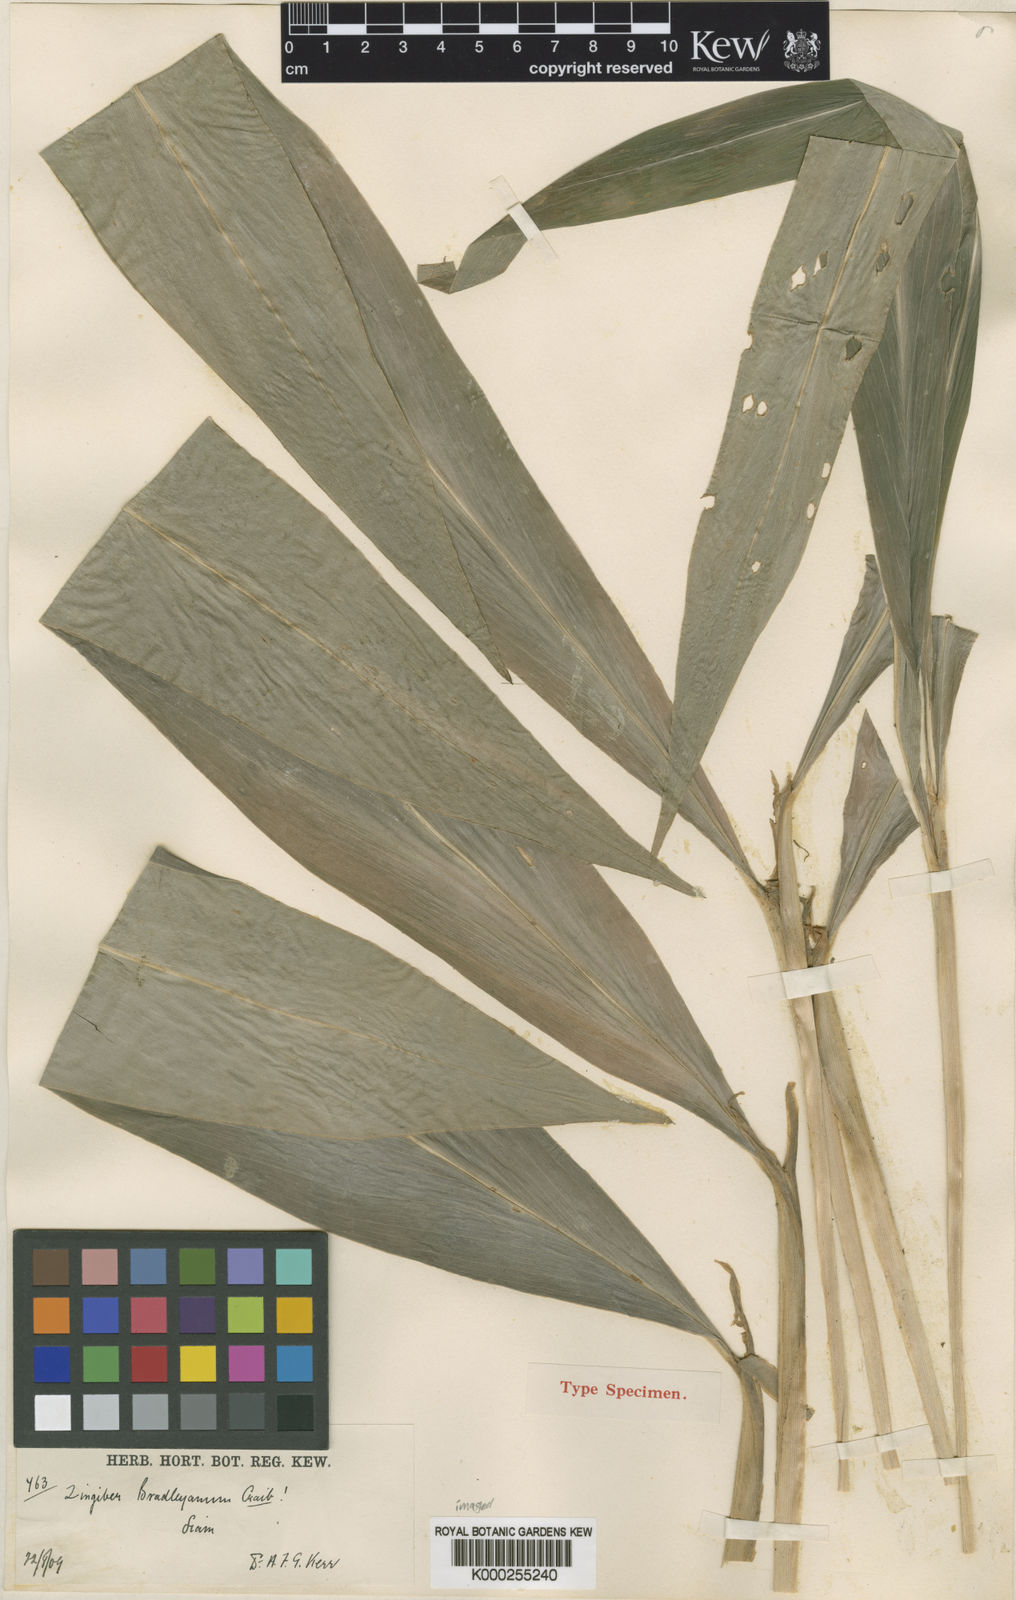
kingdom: Plantae
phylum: Tracheophyta
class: Liliopsida
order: Zingiberales
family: Zingiberaceae
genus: Zingiber
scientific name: Zingiber bradleyanum
